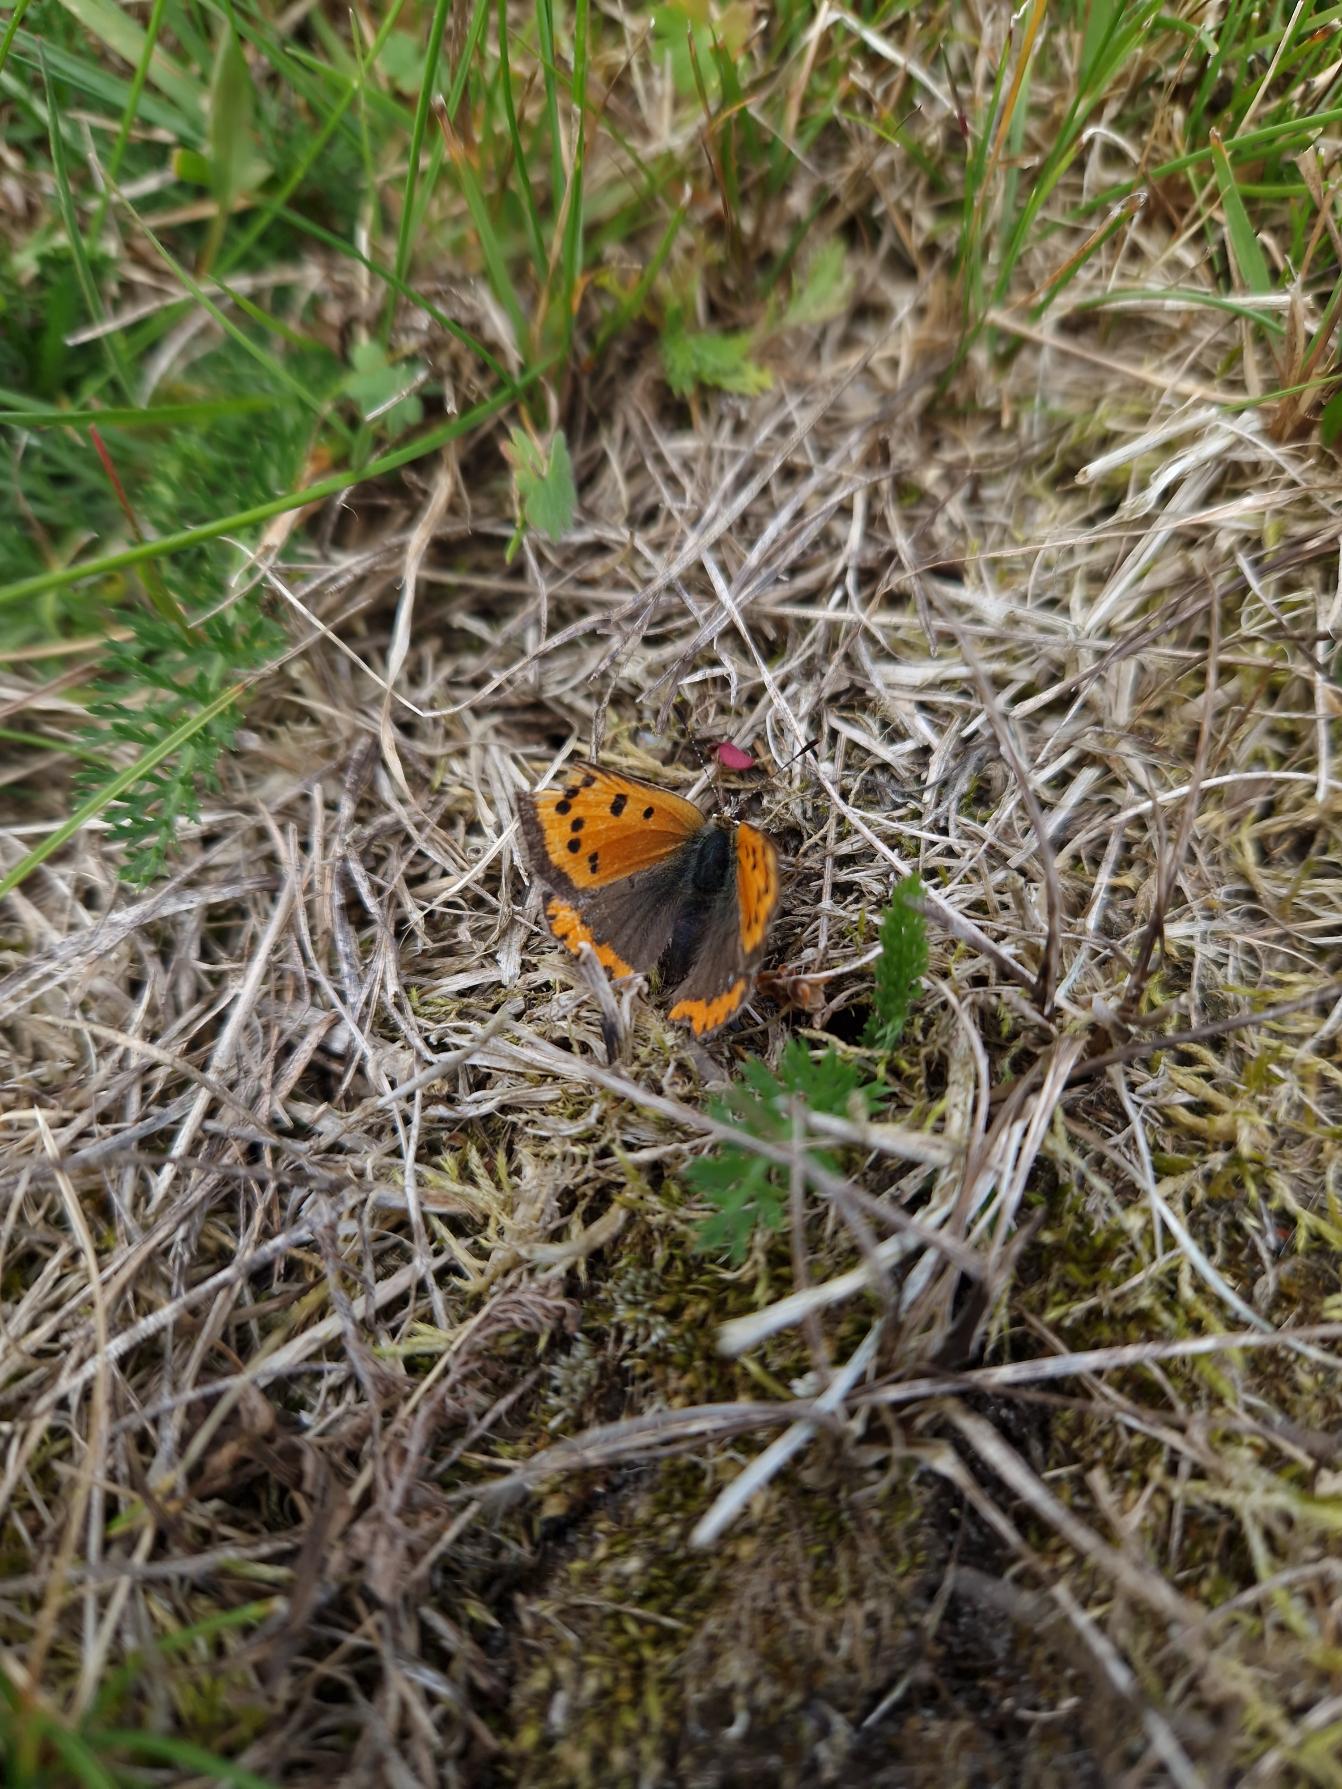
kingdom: Animalia
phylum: Arthropoda
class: Insecta
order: Lepidoptera
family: Lycaenidae
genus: Lycaena
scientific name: Lycaena phlaeas
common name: Lille ildfugl
